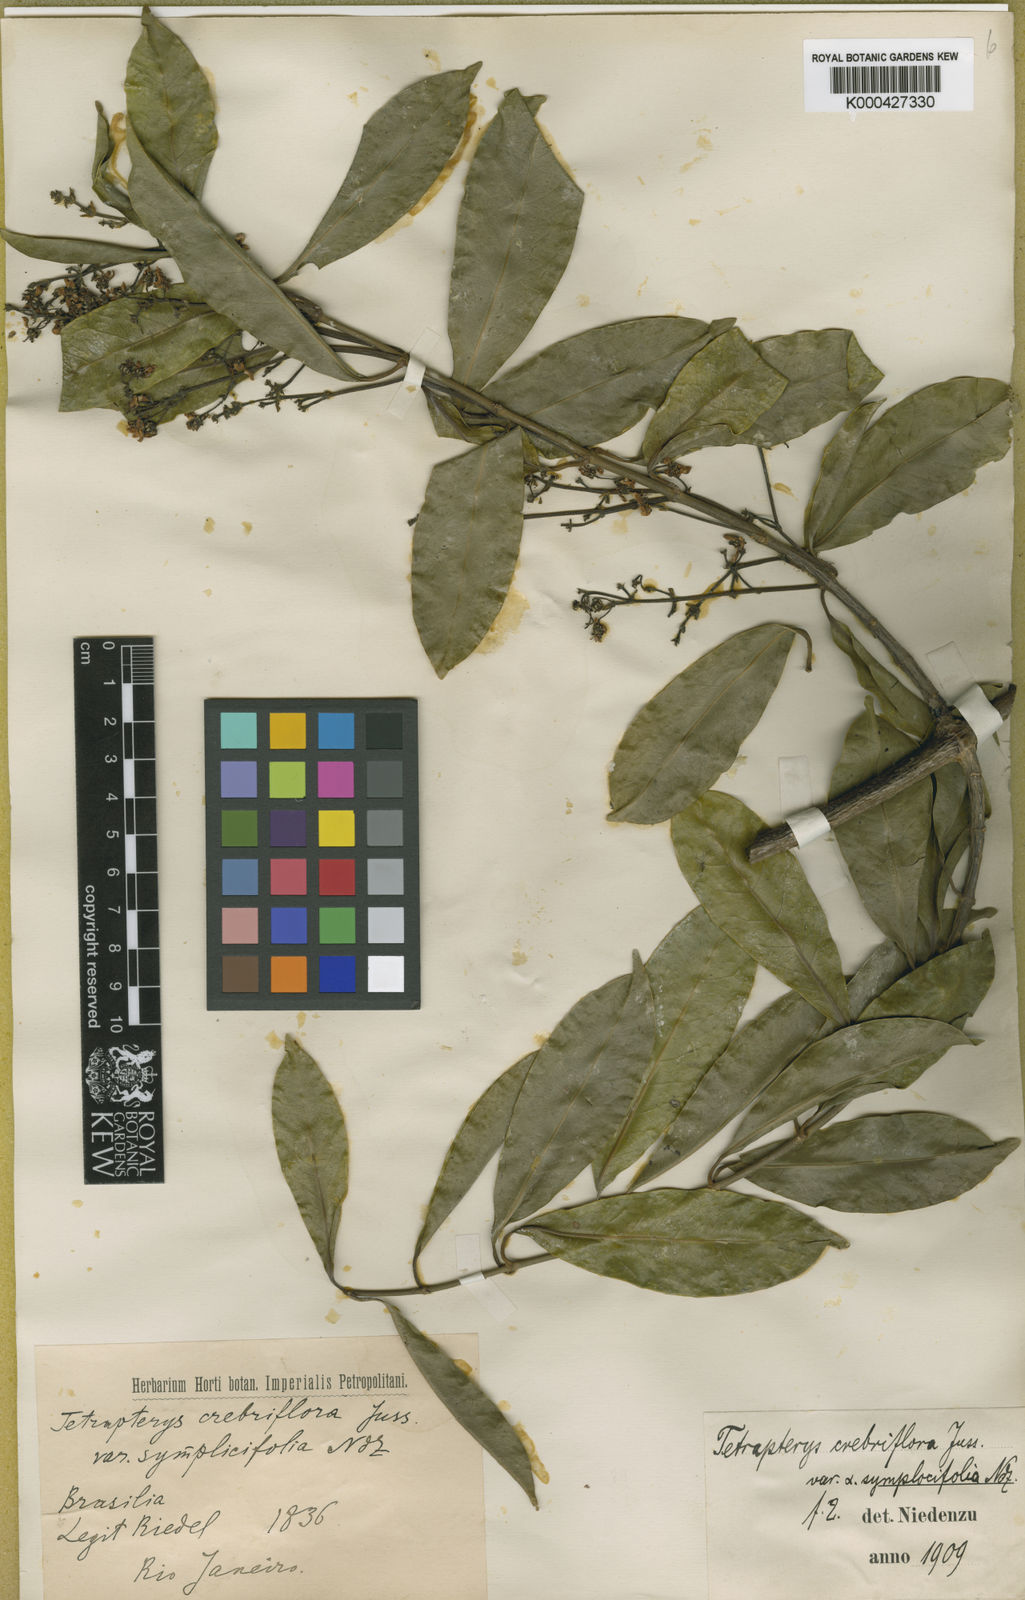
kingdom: Plantae
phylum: Tracheophyta
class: Magnoliopsida
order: Malpighiales
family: Malpighiaceae
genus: Tetrapterys
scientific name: Tetrapterys mucronata
